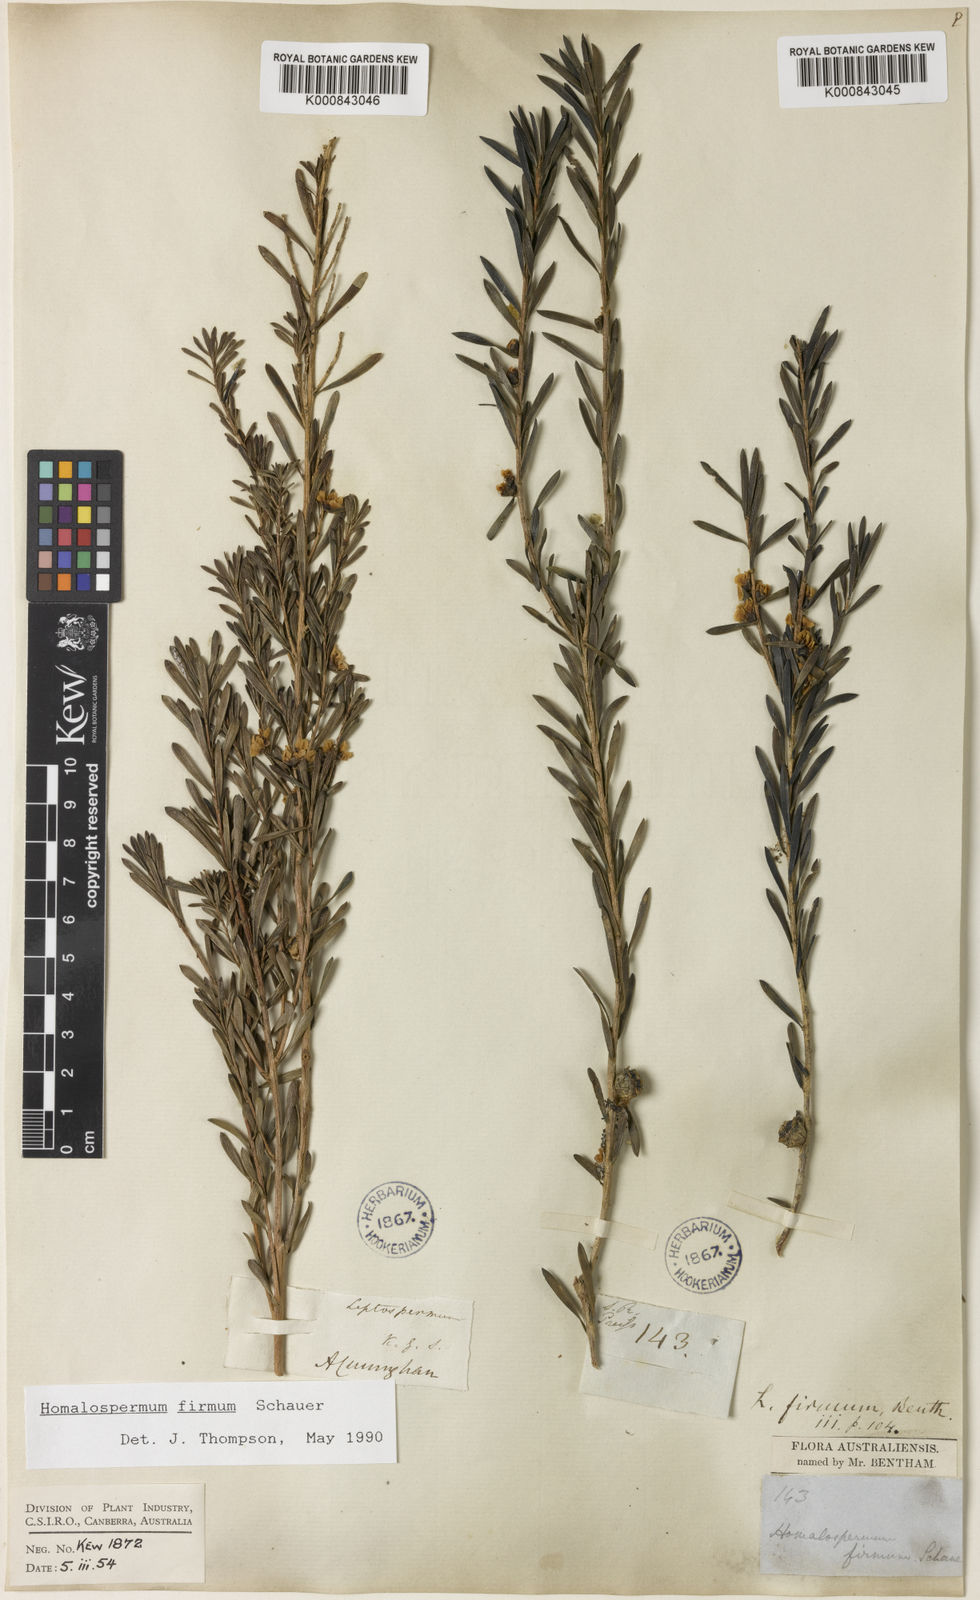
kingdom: Plantae
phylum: Tracheophyta
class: Magnoliopsida
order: Myrtales
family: Myrtaceae
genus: Homalospermum
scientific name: Homalospermum firmum
